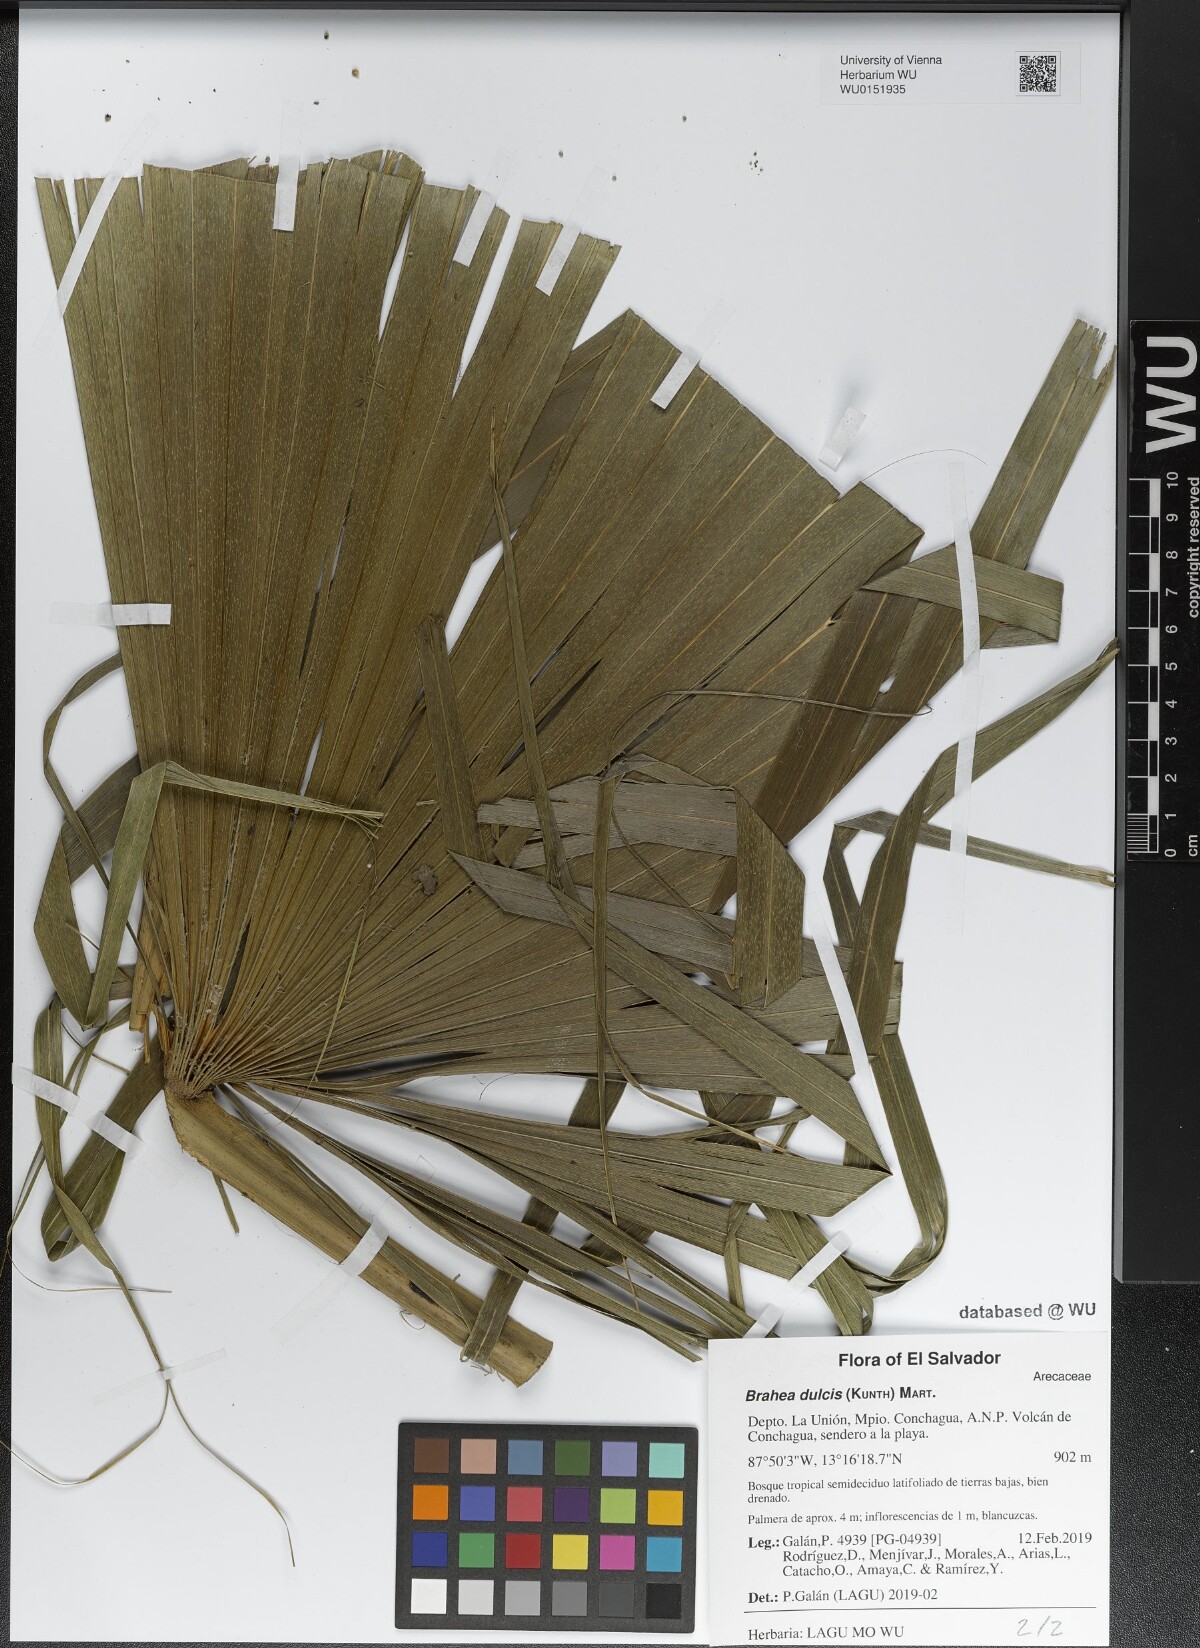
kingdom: Plantae
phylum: Tracheophyta
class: Liliopsida
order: Arecales
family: Arecaceae
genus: Brahea
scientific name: Brahea dulcis
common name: Apak palm
